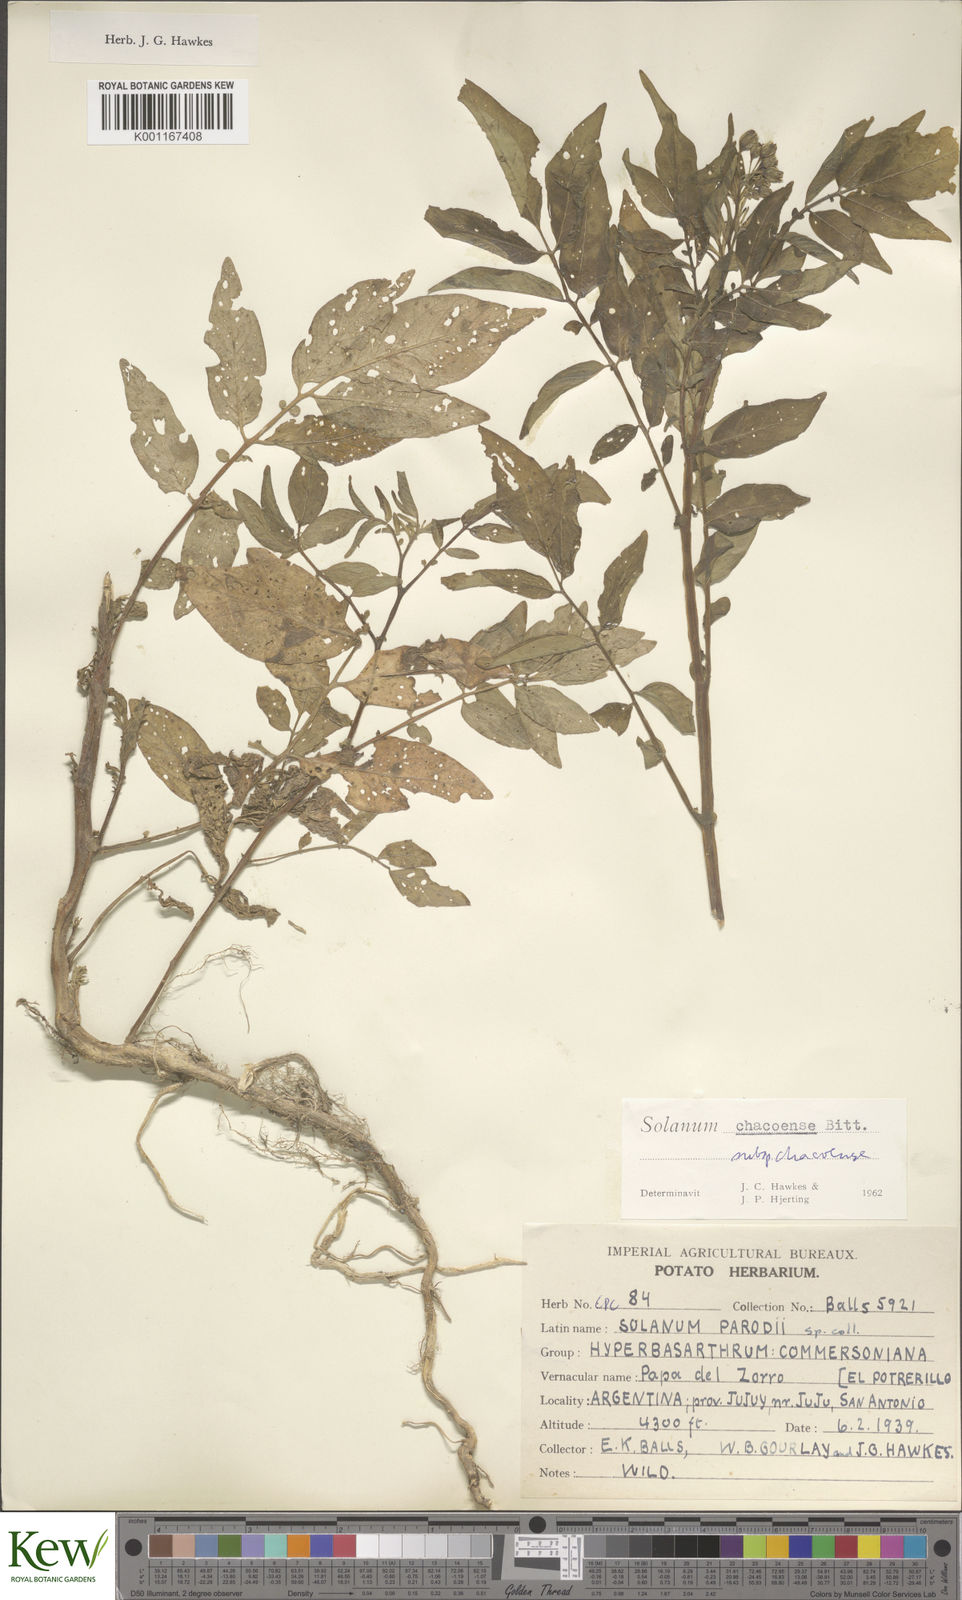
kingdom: Plantae
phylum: Tracheophyta
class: Magnoliopsida
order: Solanales
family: Solanaceae
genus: Solanum
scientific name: Solanum chacoense
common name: Chaco potato
